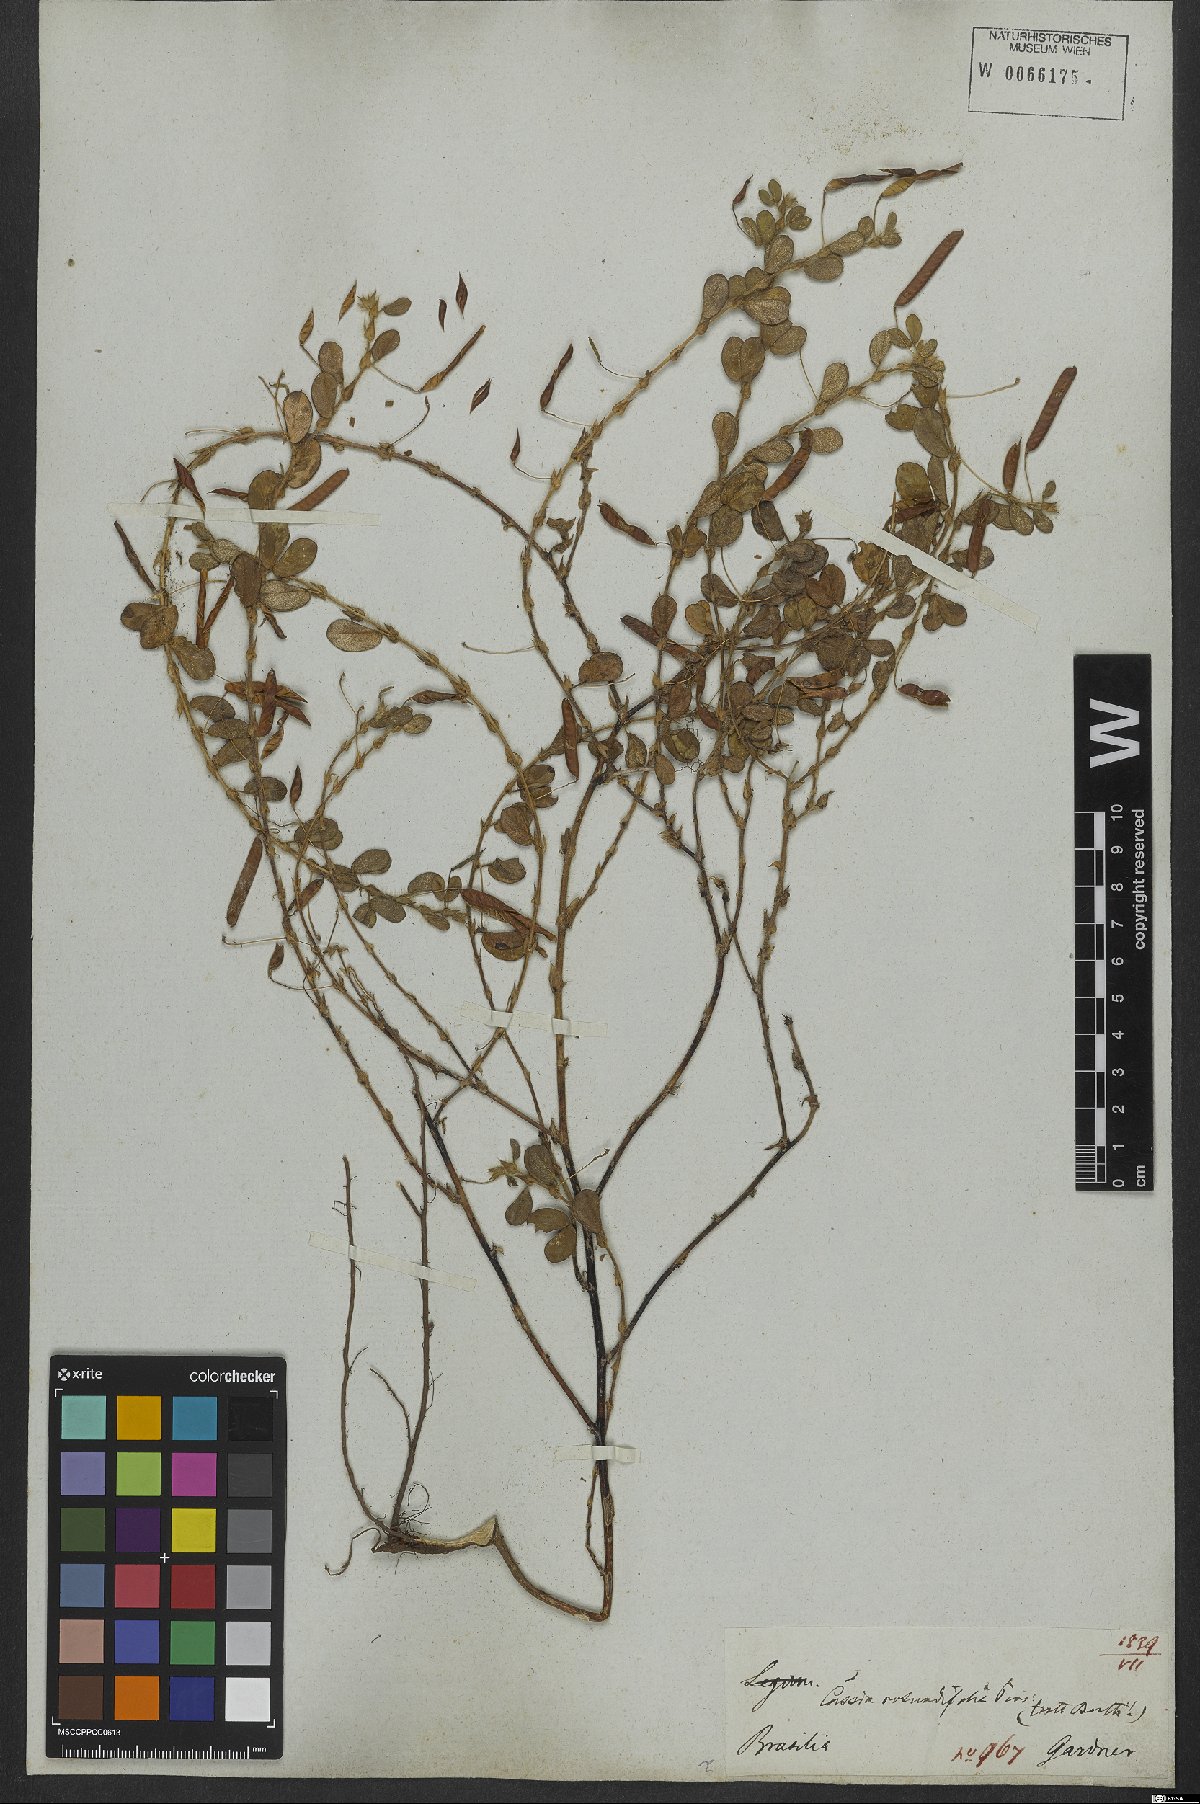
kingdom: Plantae
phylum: Tracheophyta
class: Magnoliopsida
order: Fabales
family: Fabaceae
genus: Chamaecrista
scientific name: Chamaecrista rotundifolia
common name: Round-leaf cassia
